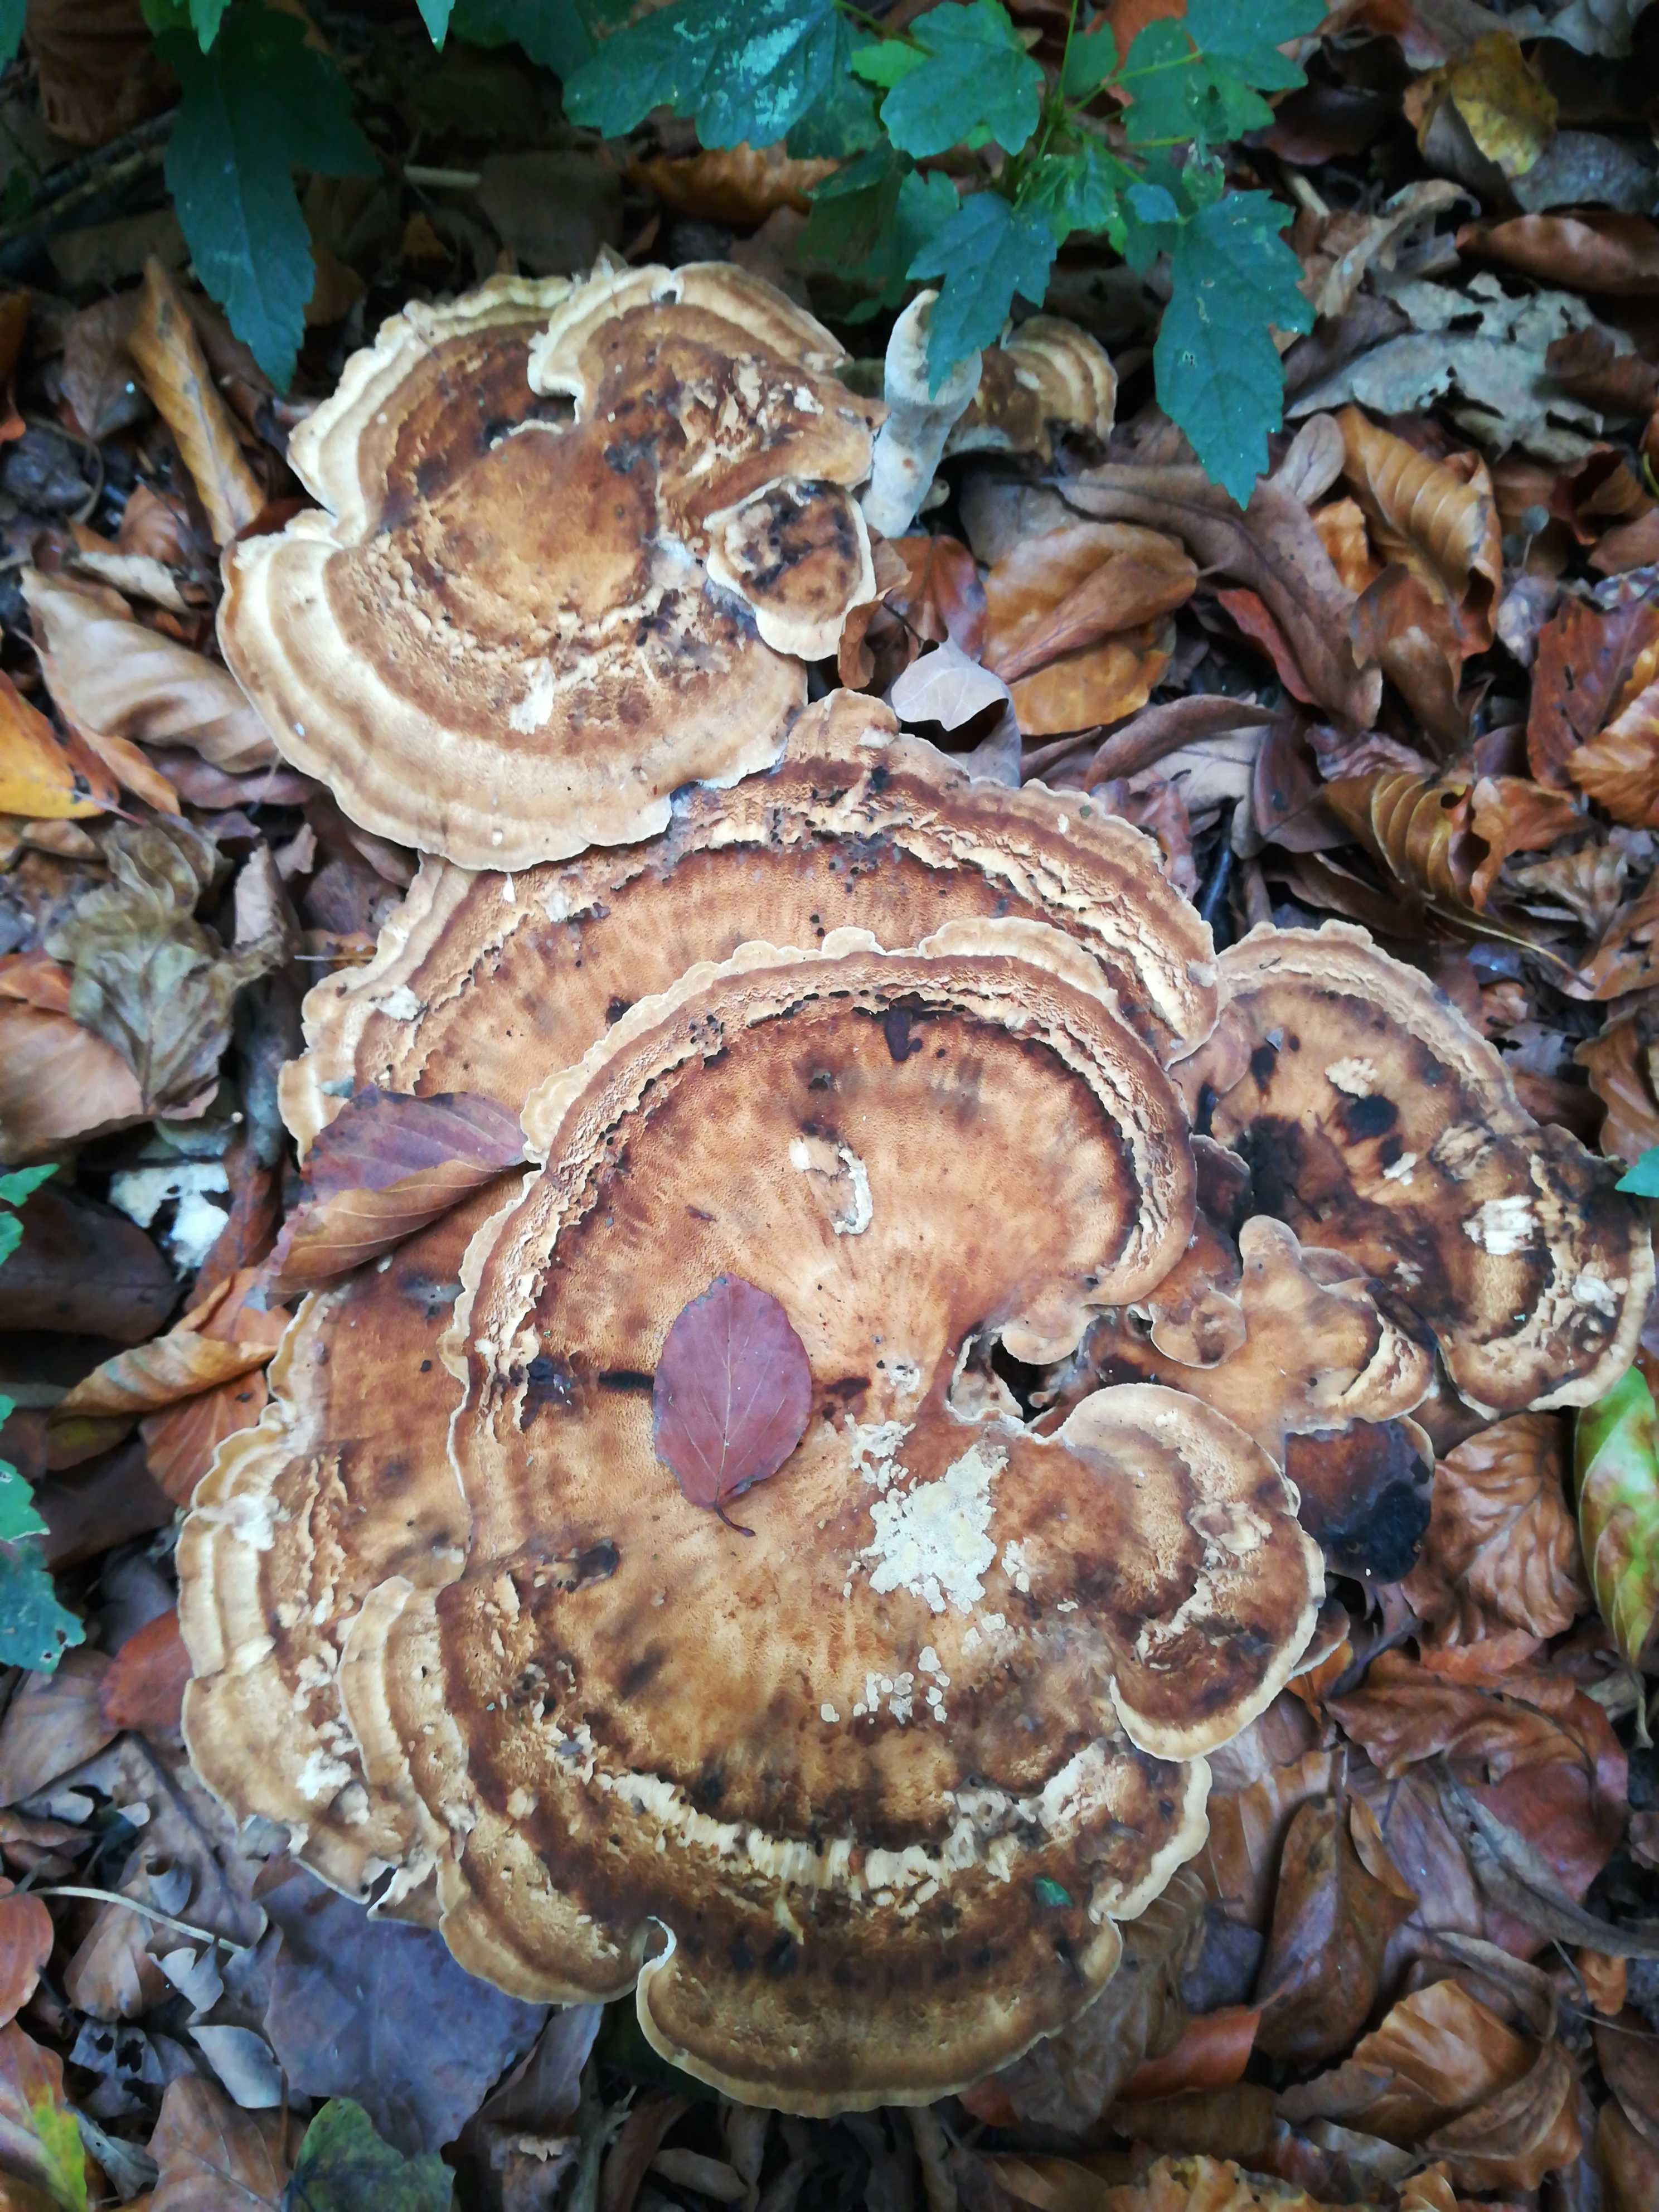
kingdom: Fungi
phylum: Basidiomycota
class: Agaricomycetes
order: Polyporales
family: Meripilaceae
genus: Meripilus
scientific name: Meripilus giganteus
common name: kæmpeporesvamp
